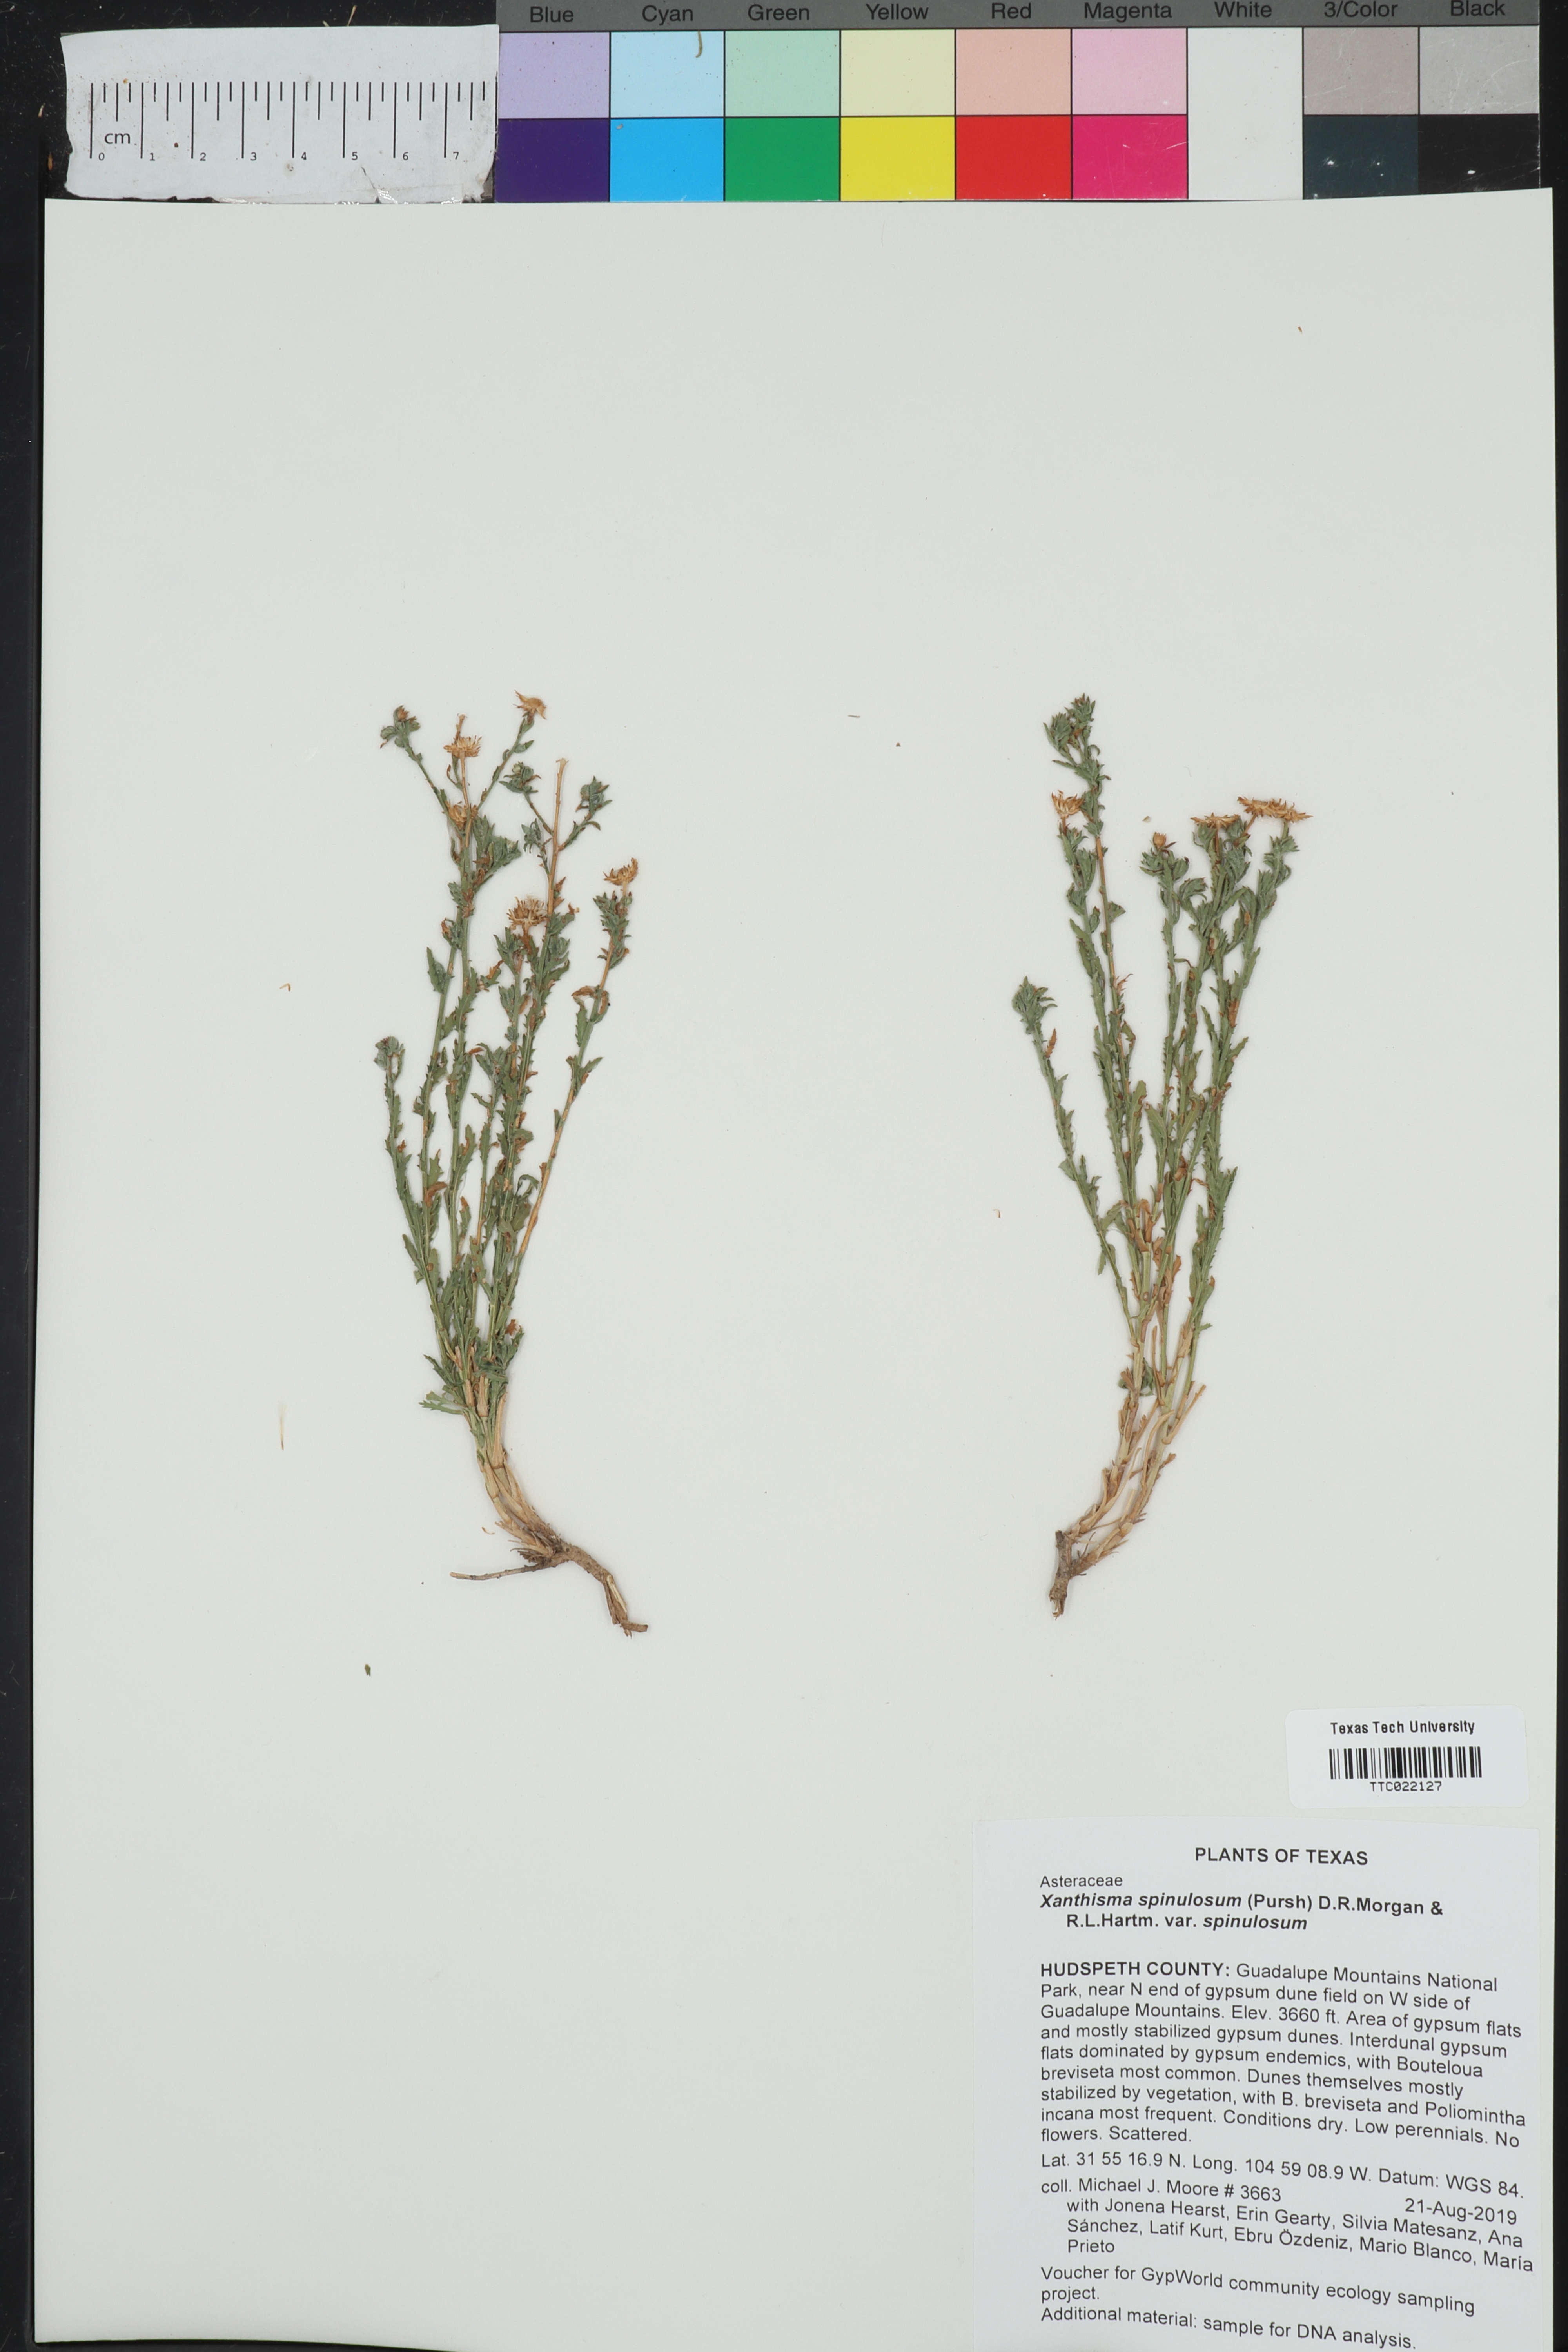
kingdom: Plantae
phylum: Tracheophyta
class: Magnoliopsida
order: Asterales
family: Asteraceae
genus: Xanthisma
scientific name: Xanthisma spinulosum
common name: Spiny goldenweed
